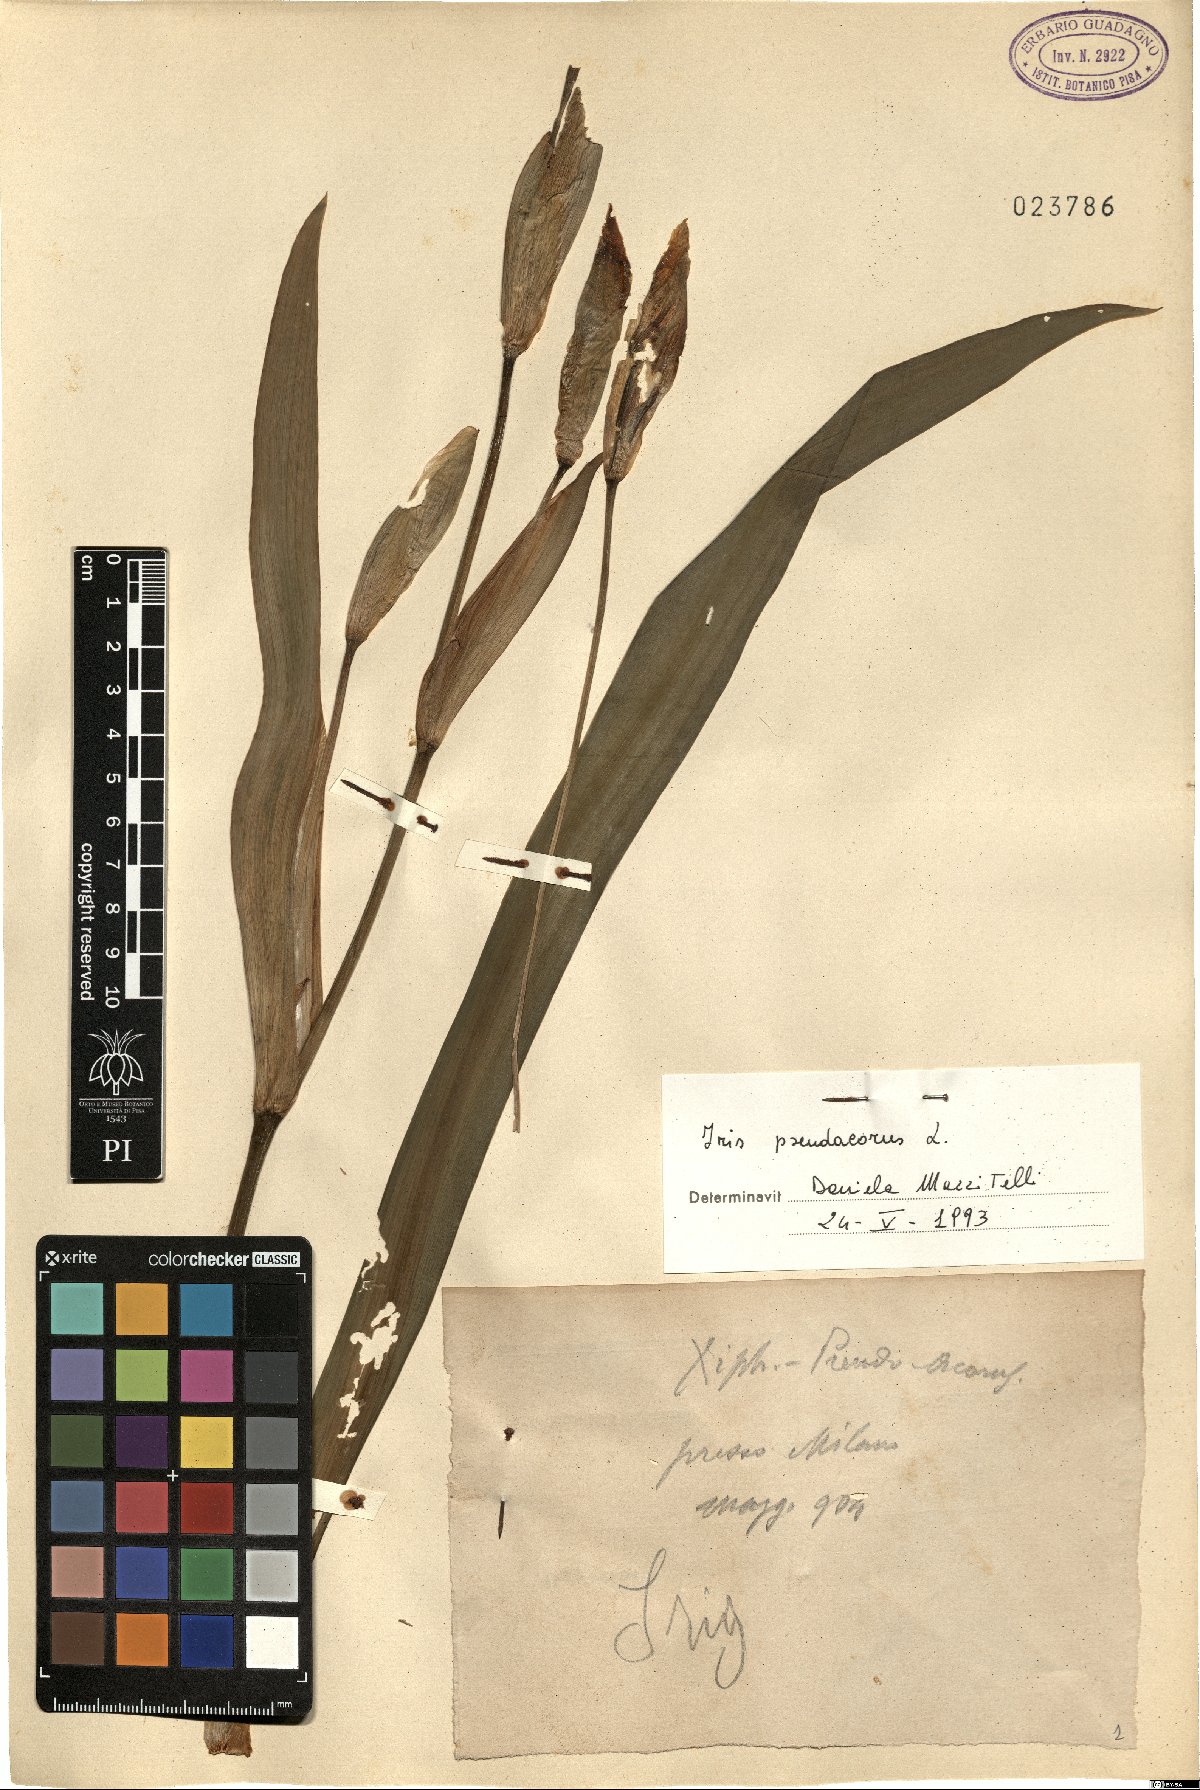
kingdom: Plantae
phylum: Tracheophyta
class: Liliopsida
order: Asparagales
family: Iridaceae
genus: Iris
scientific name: Iris pseudacorus
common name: Yellow flag
